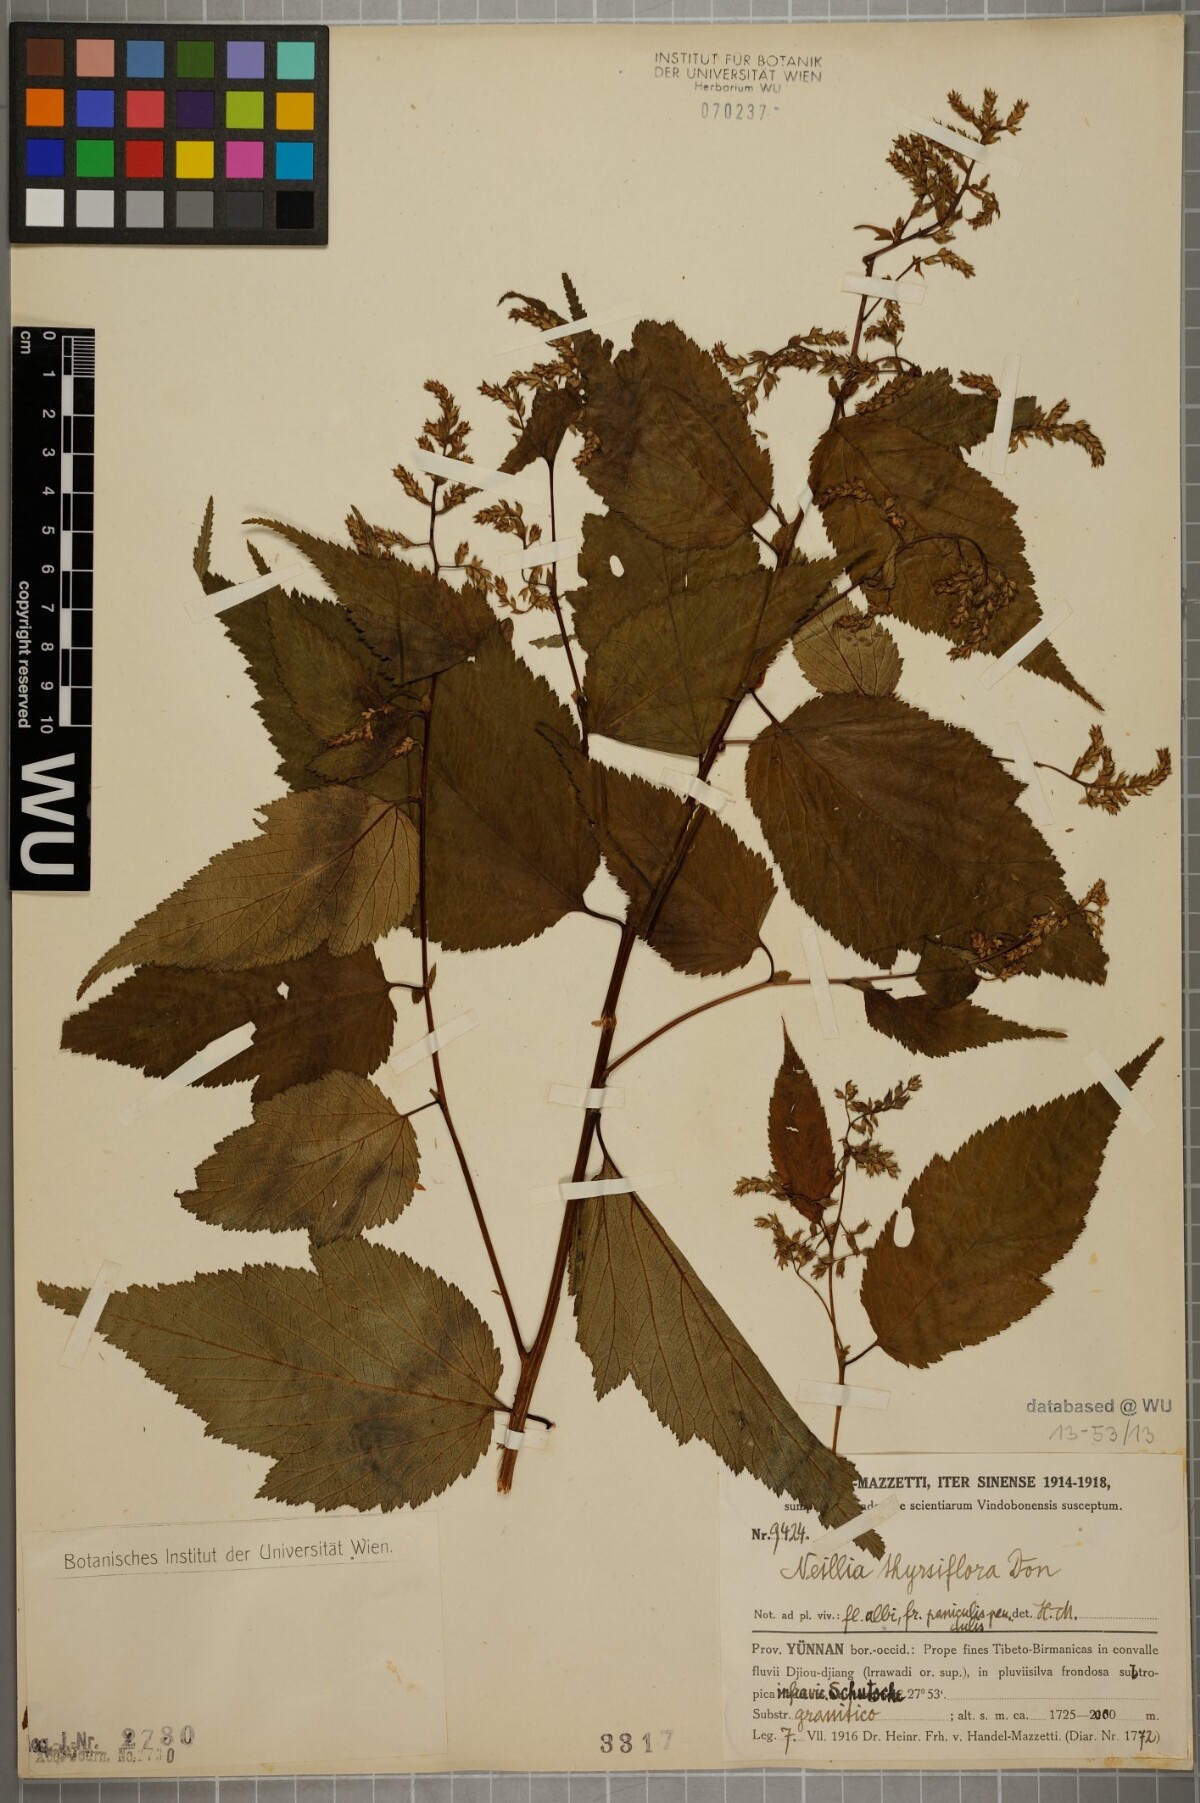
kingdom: Plantae
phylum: Tracheophyta
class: Magnoliopsida
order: Rosales
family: Rosaceae
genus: Neillia
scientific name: Neillia thyrsiflora
